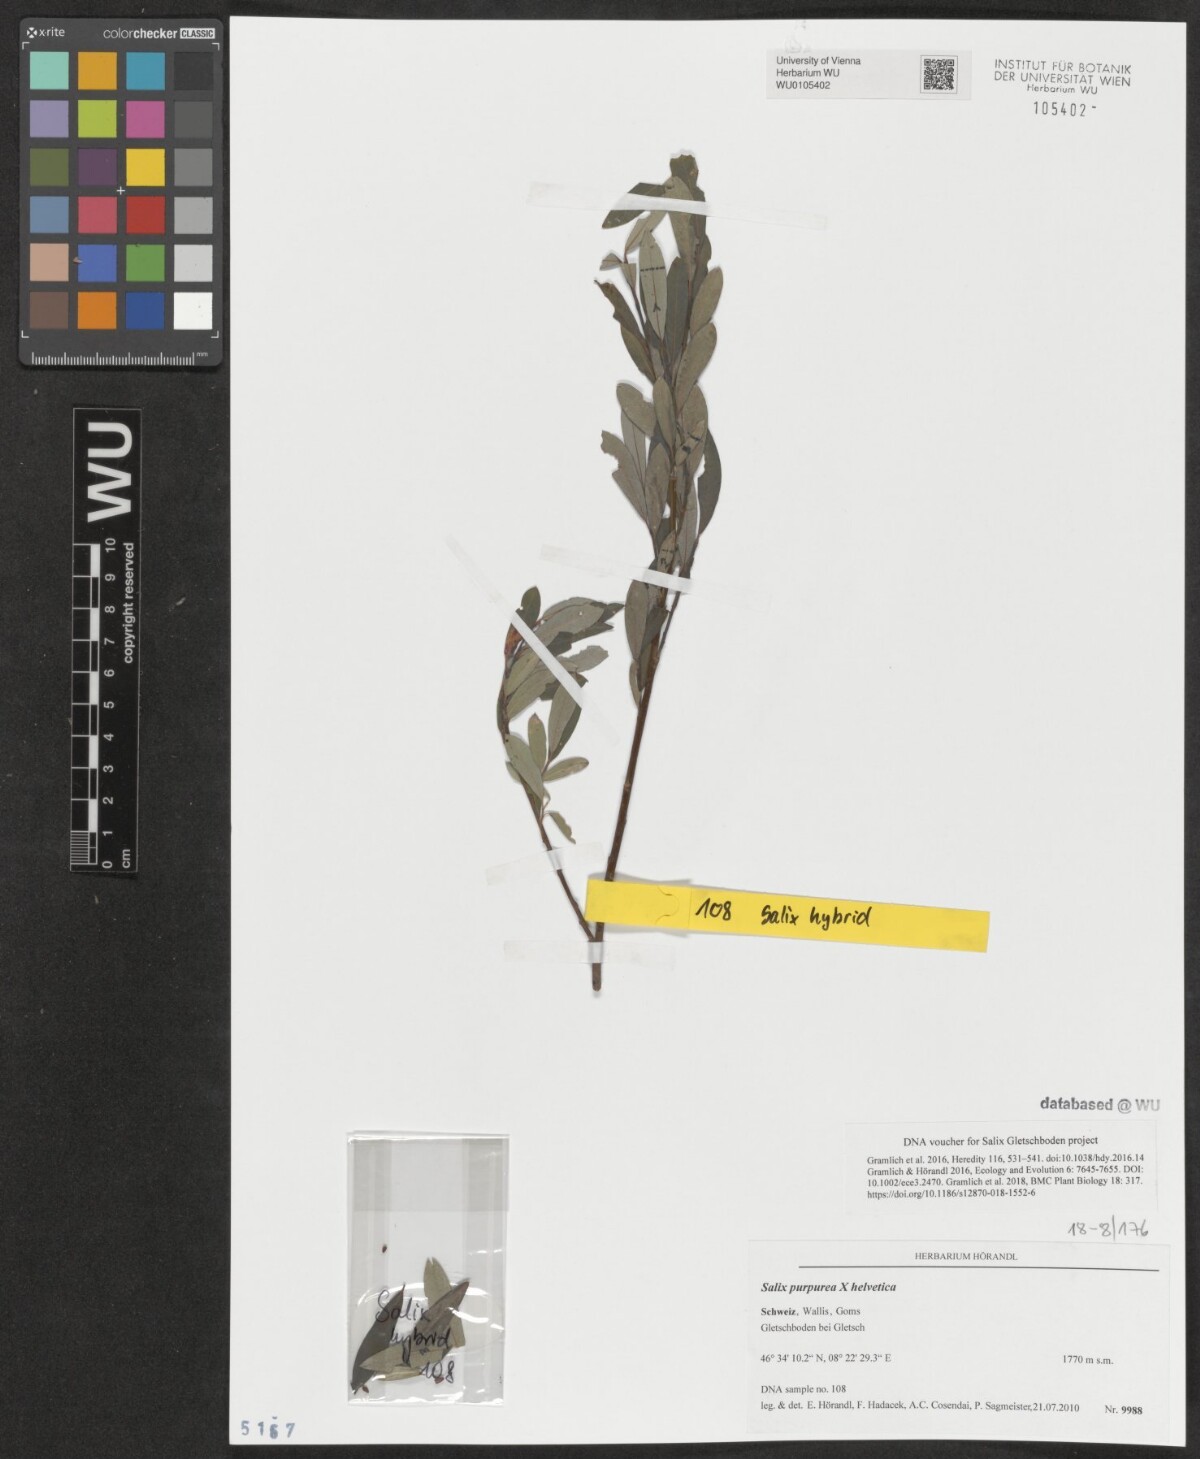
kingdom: Plantae
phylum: Tracheophyta
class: Magnoliopsida
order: Malpighiales
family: Salicaceae
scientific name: Salicaceae
